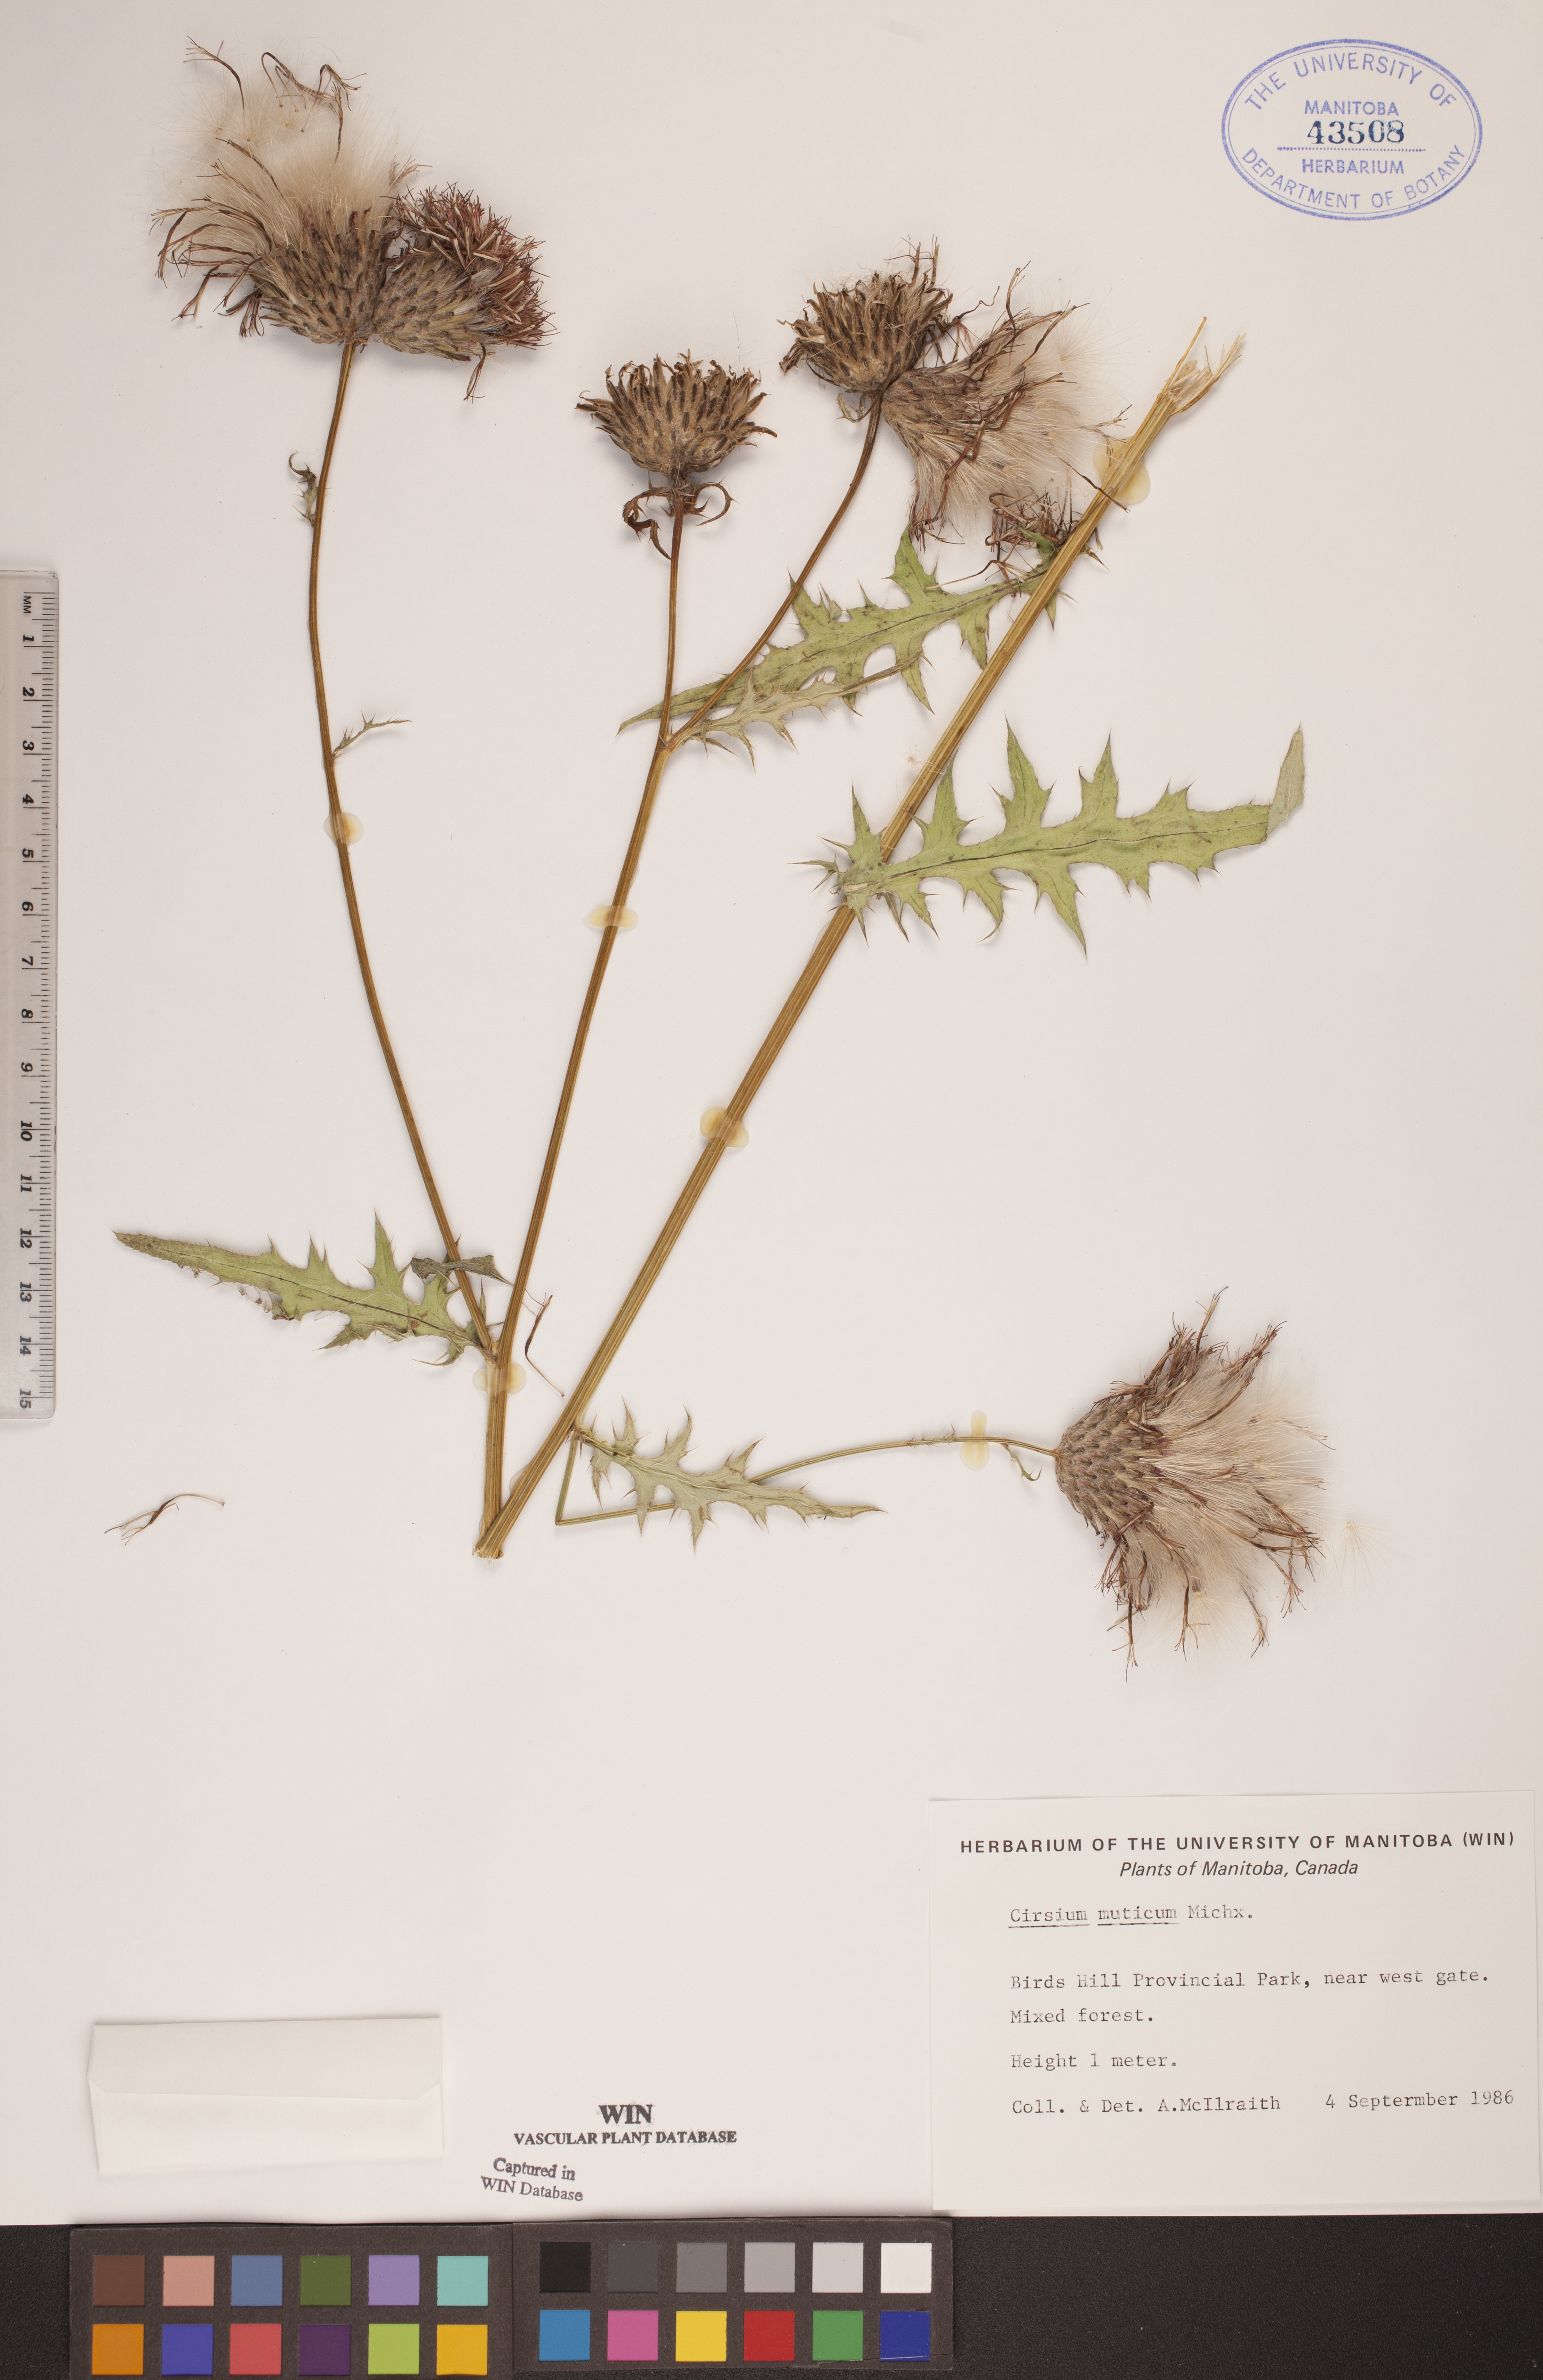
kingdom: Plantae
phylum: Tracheophyta
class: Magnoliopsida
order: Asterales
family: Asteraceae
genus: Cirsium
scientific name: Cirsium muticum
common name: Dunce-nettle
